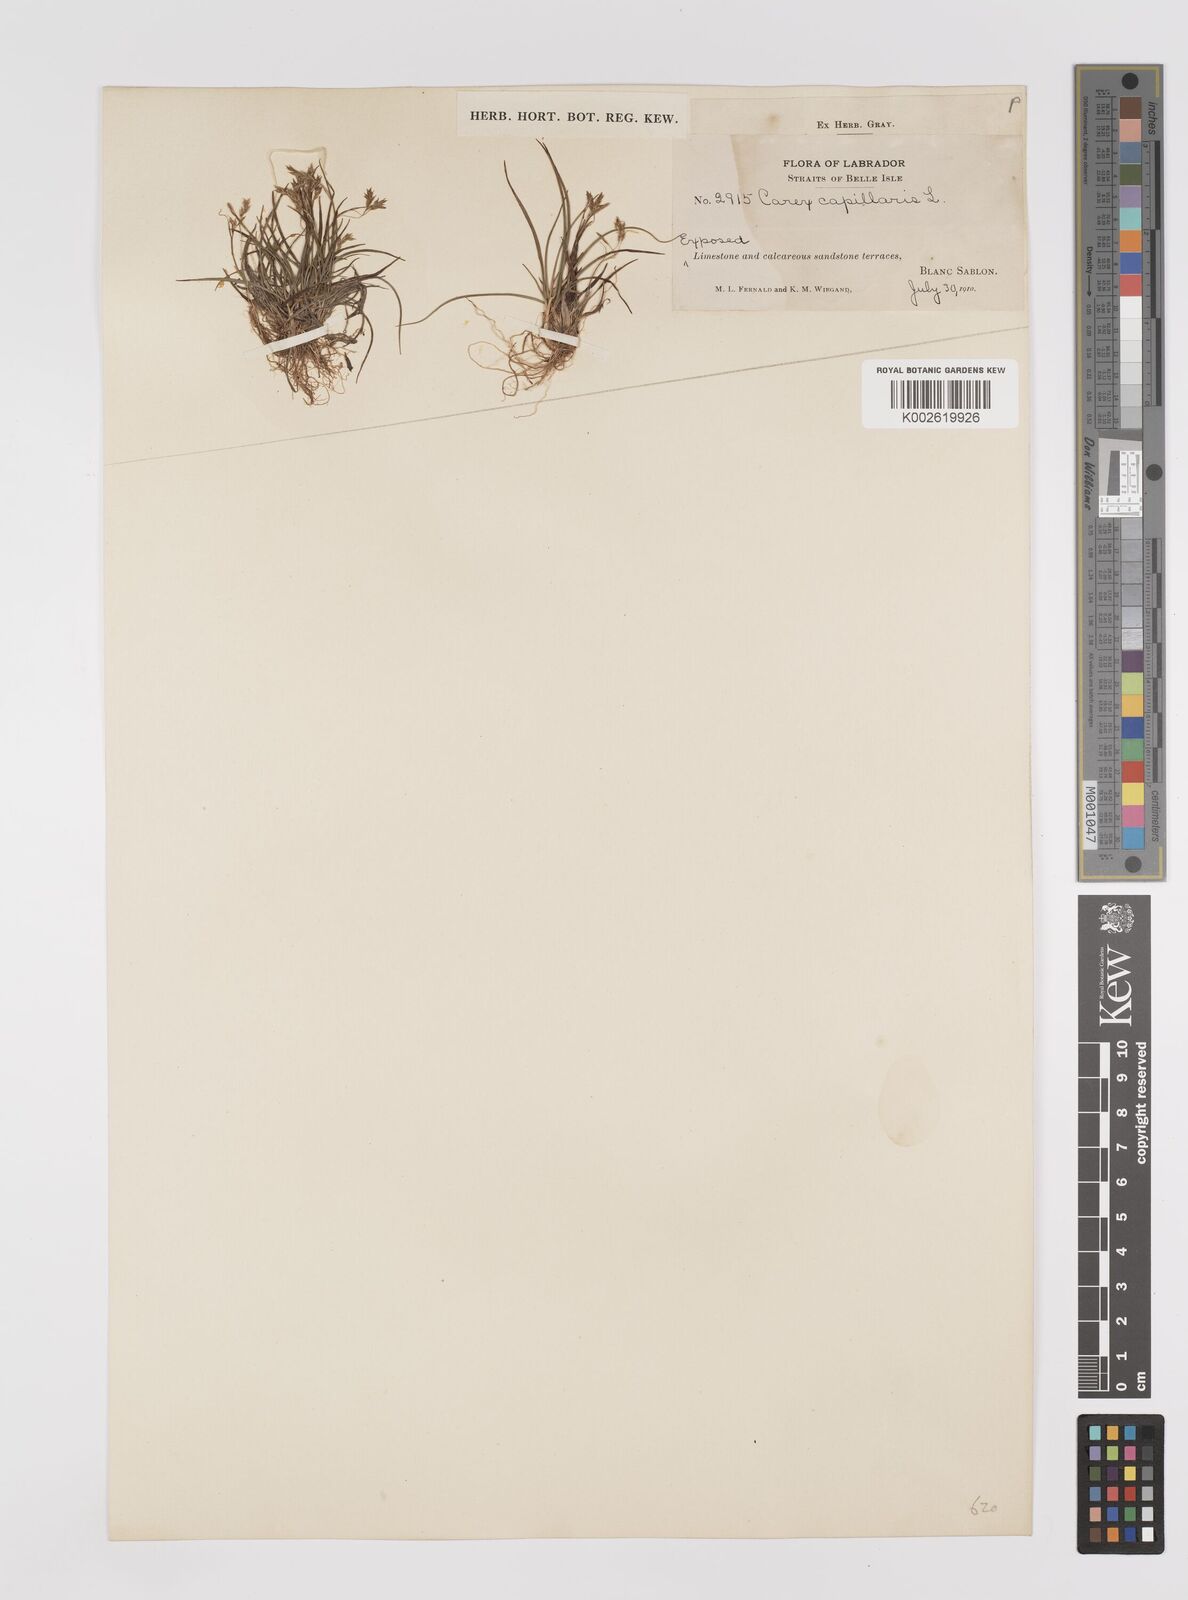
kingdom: Plantae
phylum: Tracheophyta
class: Liliopsida
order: Poales
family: Cyperaceae
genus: Carex
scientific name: Carex capillaris
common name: Hair sedge
